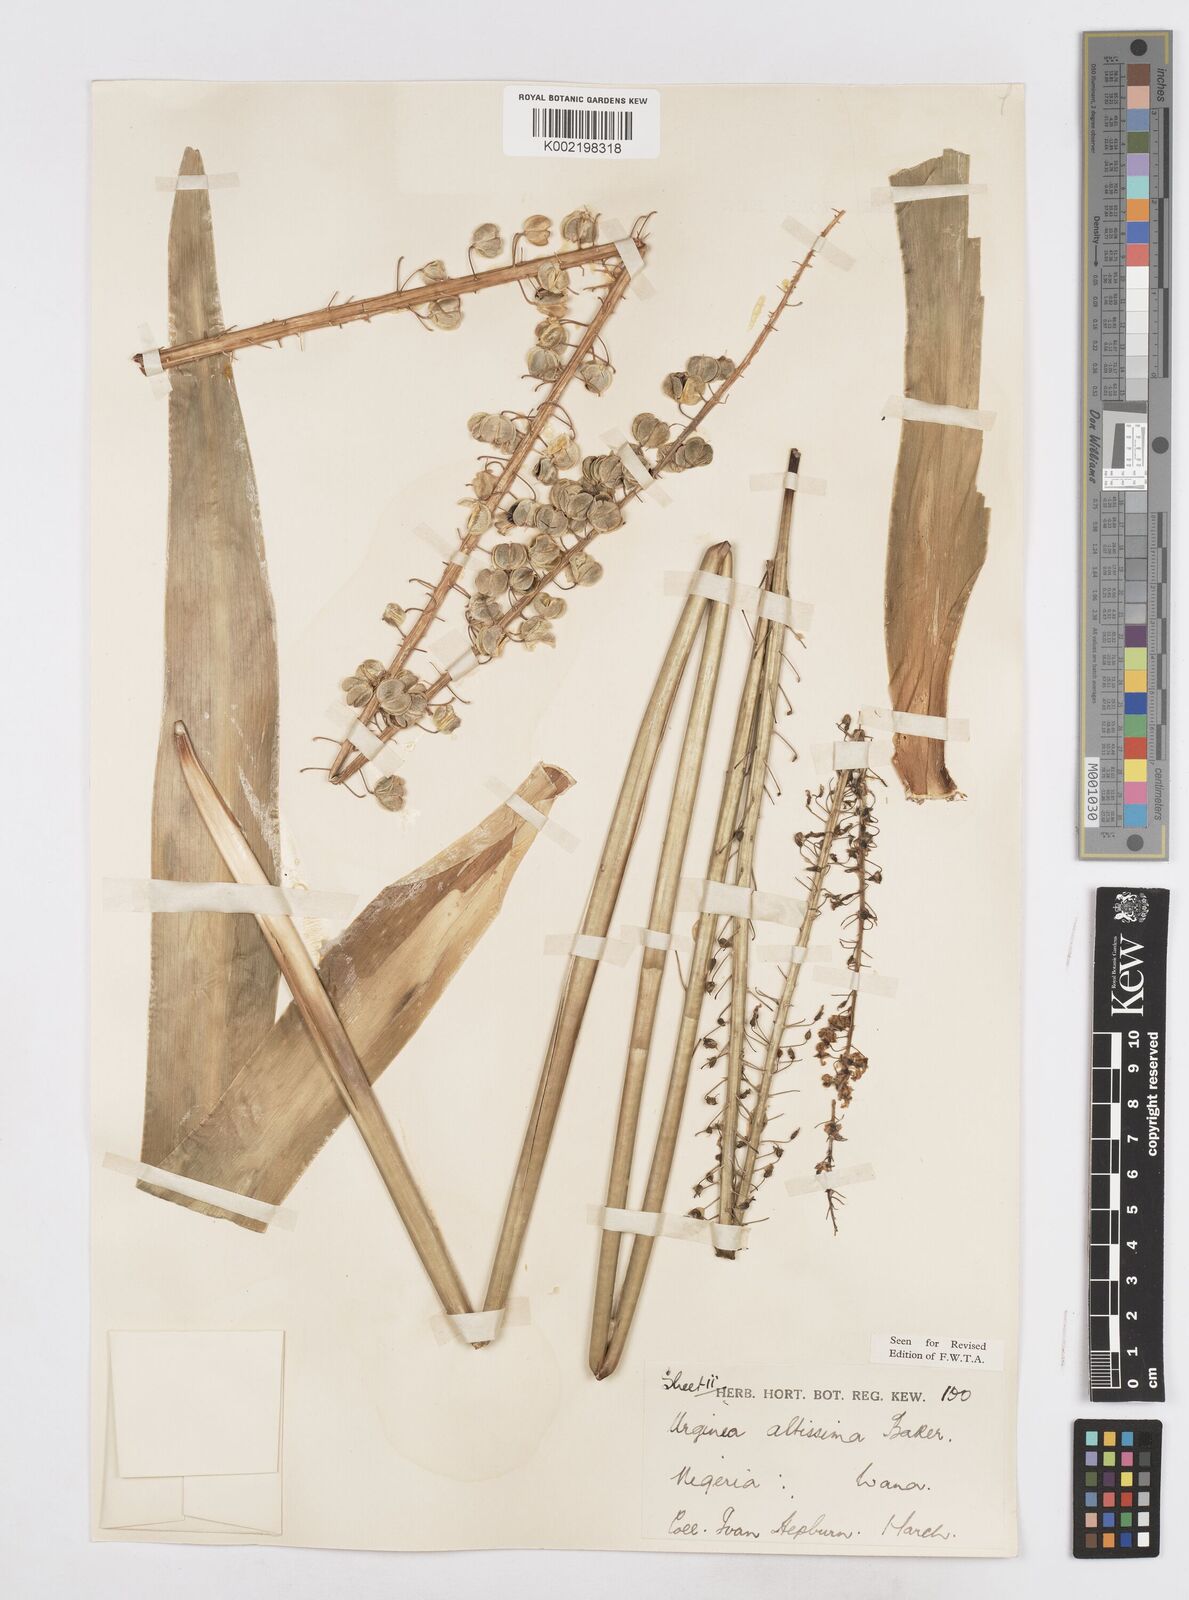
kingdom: Plantae
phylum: Tracheophyta
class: Liliopsida
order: Asparagales
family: Asparagaceae
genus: Drimia
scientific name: Drimia altissima
